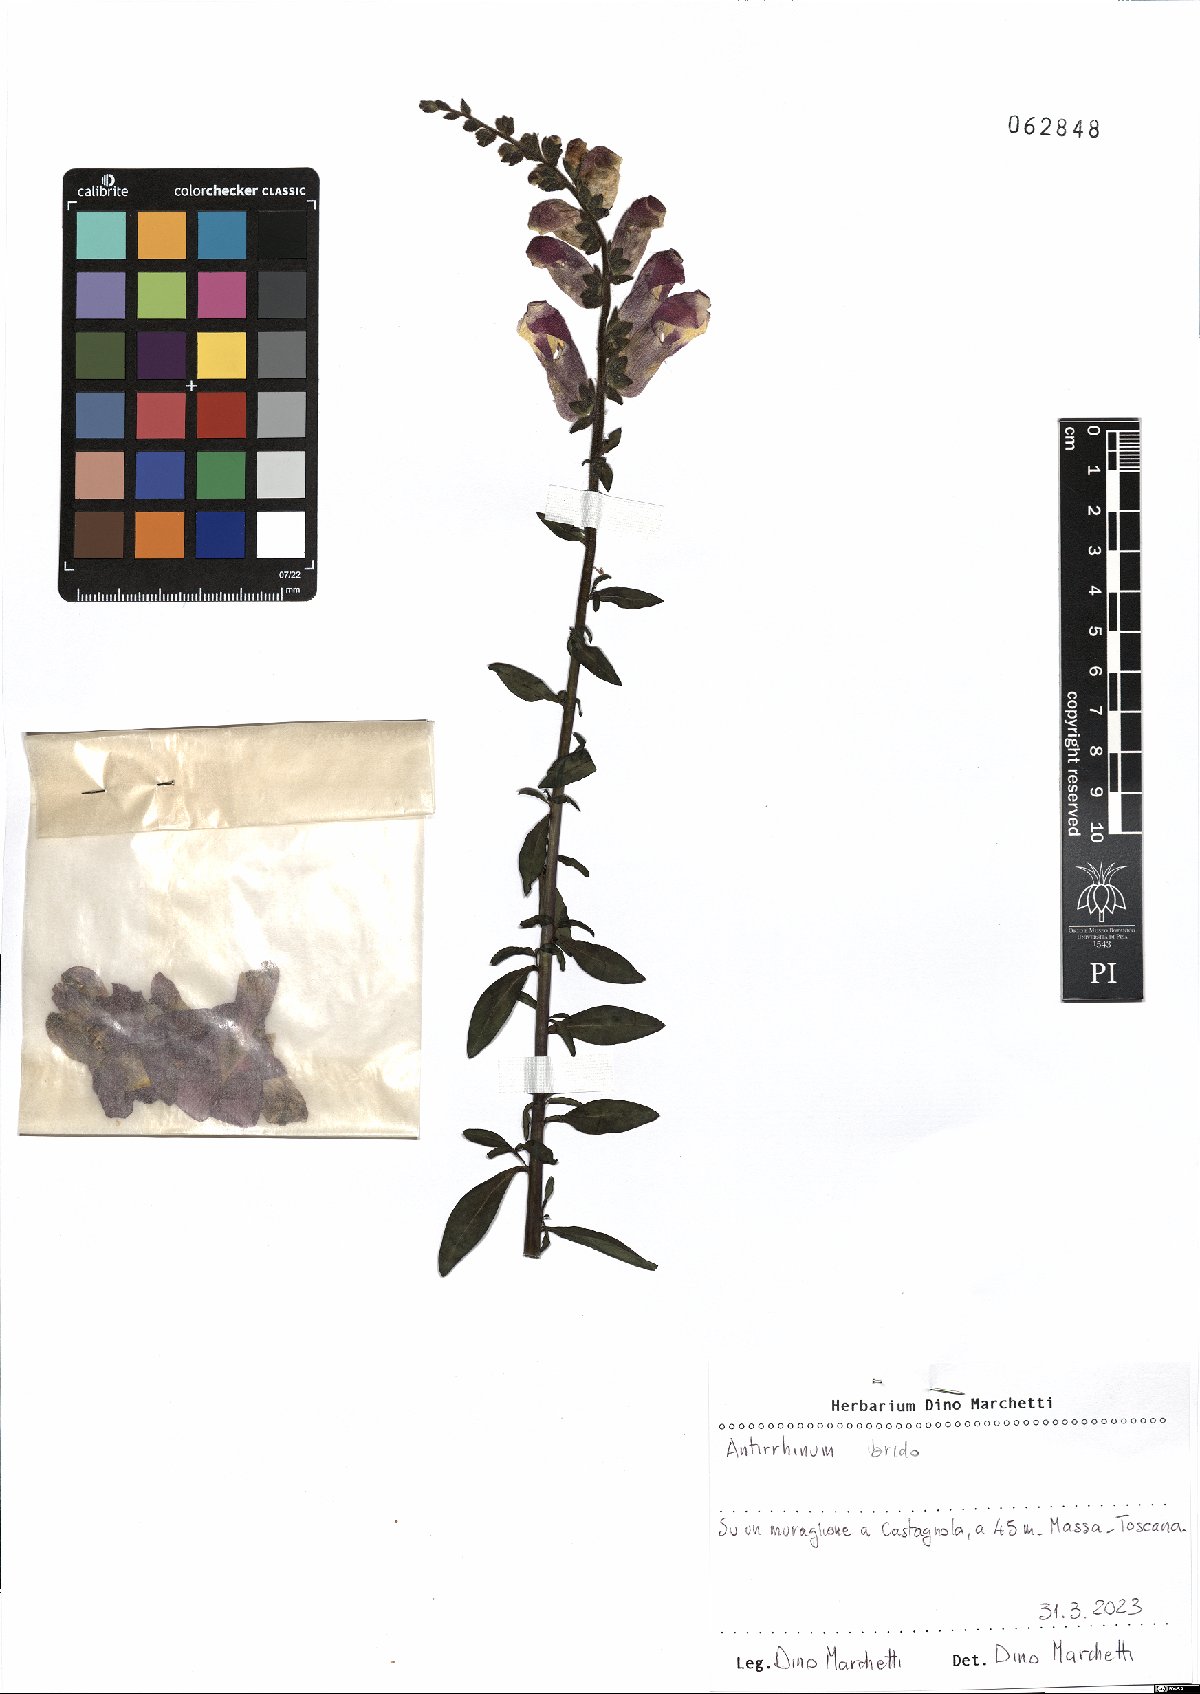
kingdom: Plantae
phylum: Tracheophyta
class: Magnoliopsida
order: Lamiales
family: Plantaginaceae
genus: Antirrhinum
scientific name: Antirrhinum
